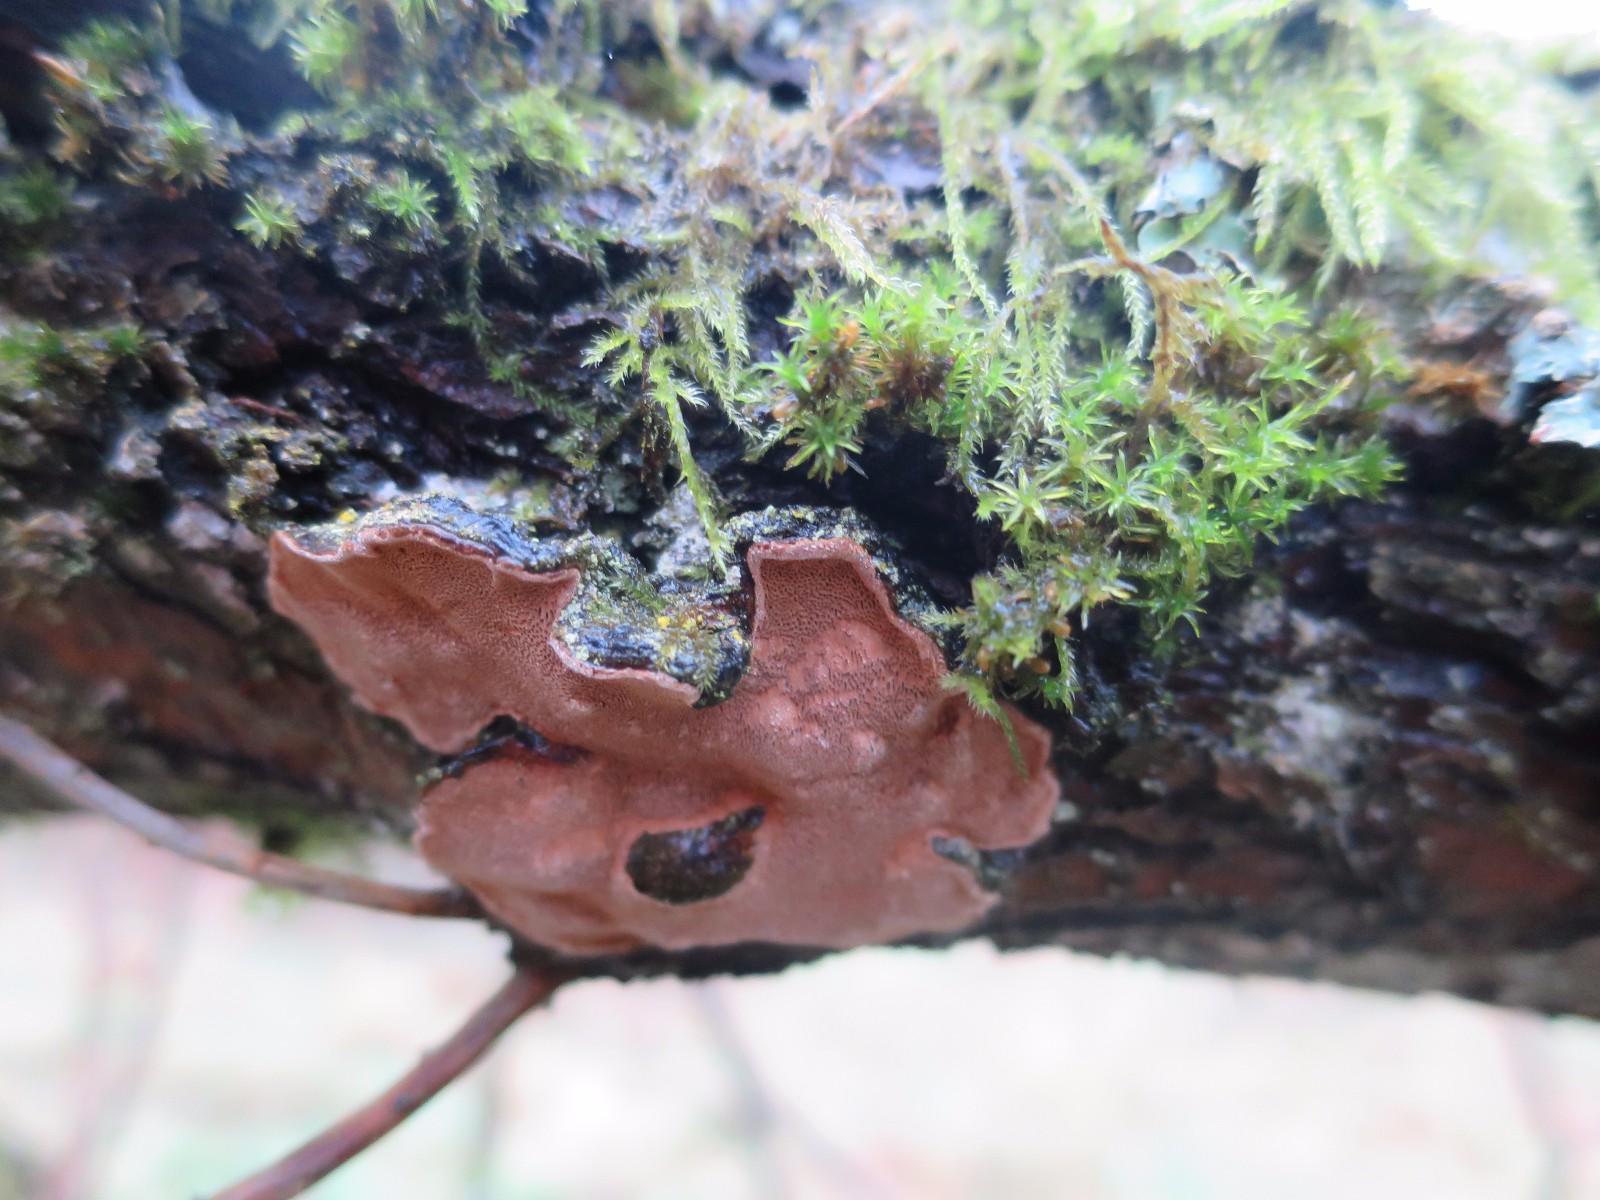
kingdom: Fungi
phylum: Basidiomycota
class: Agaricomycetes
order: Hymenochaetales
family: Hymenochaetaceae
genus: Phellinopsis
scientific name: Phellinopsis conchata
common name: pile-ildporesvamp
